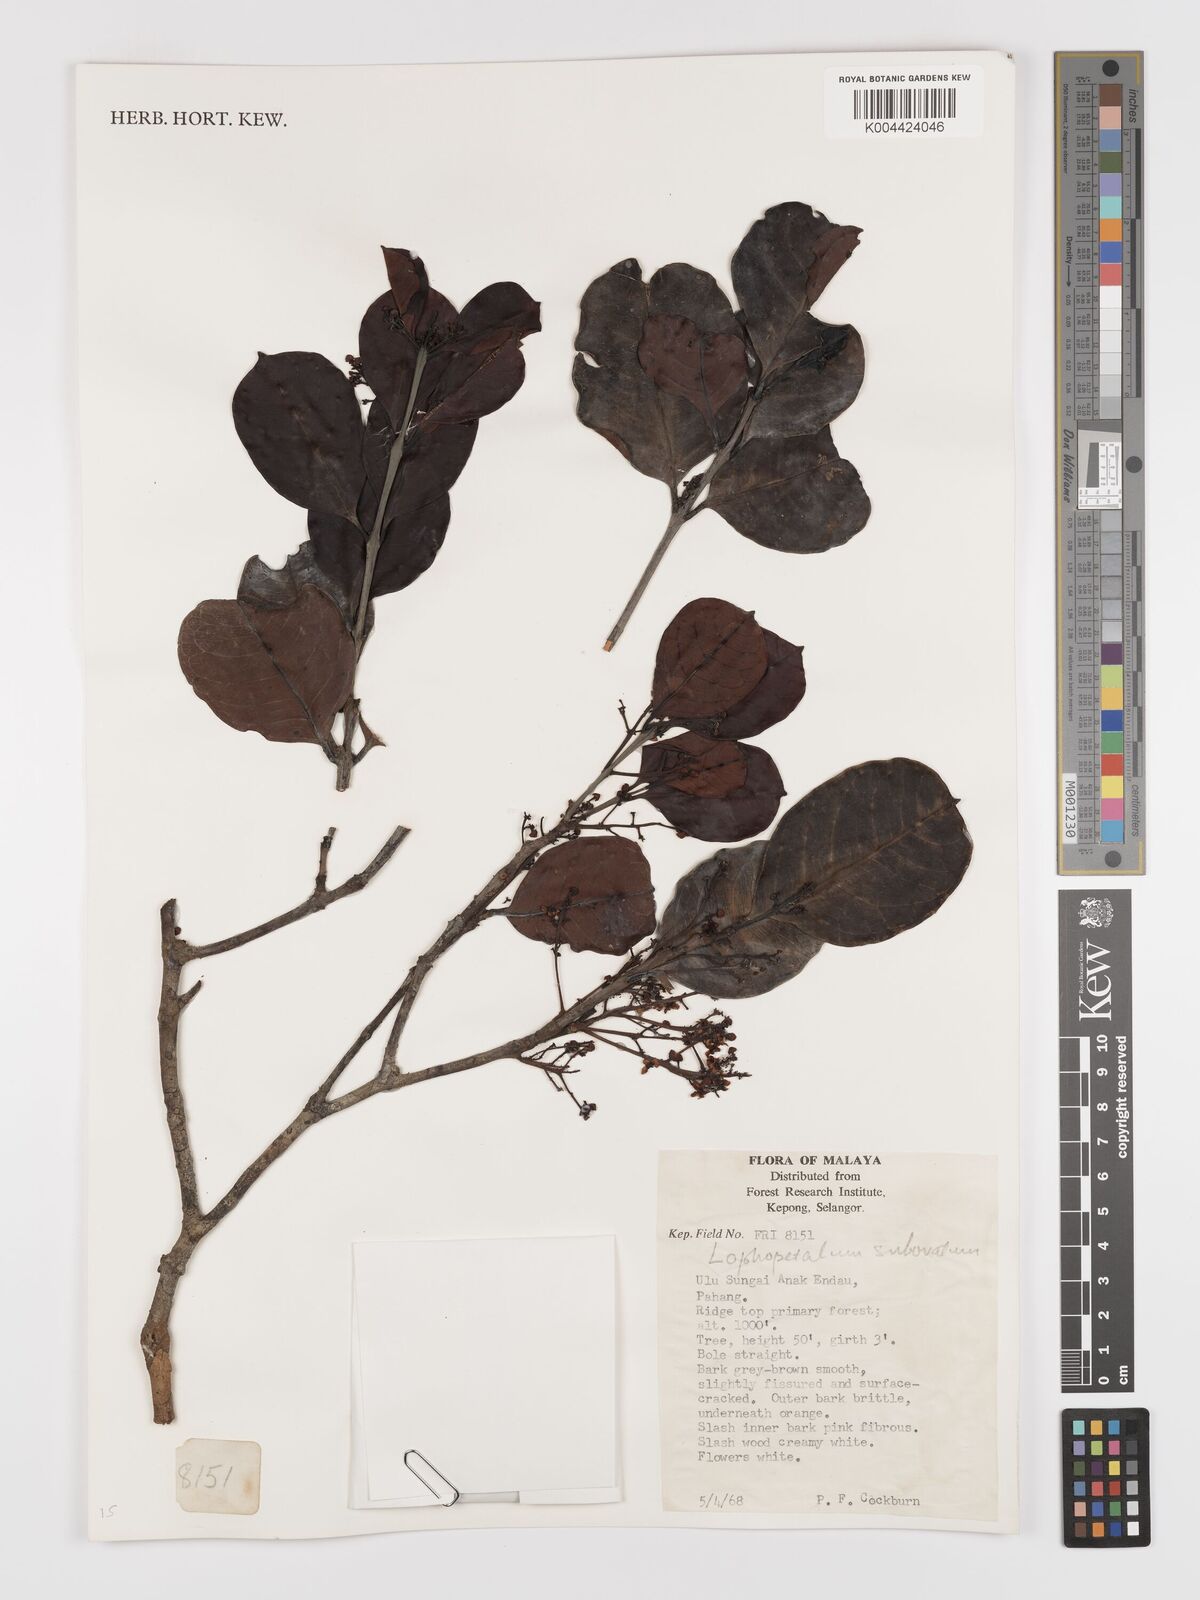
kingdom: Plantae
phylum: Tracheophyta
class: Magnoliopsida
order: Celastrales
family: Celastraceae
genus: Lophopetalum
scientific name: Lophopetalum subobovatum
